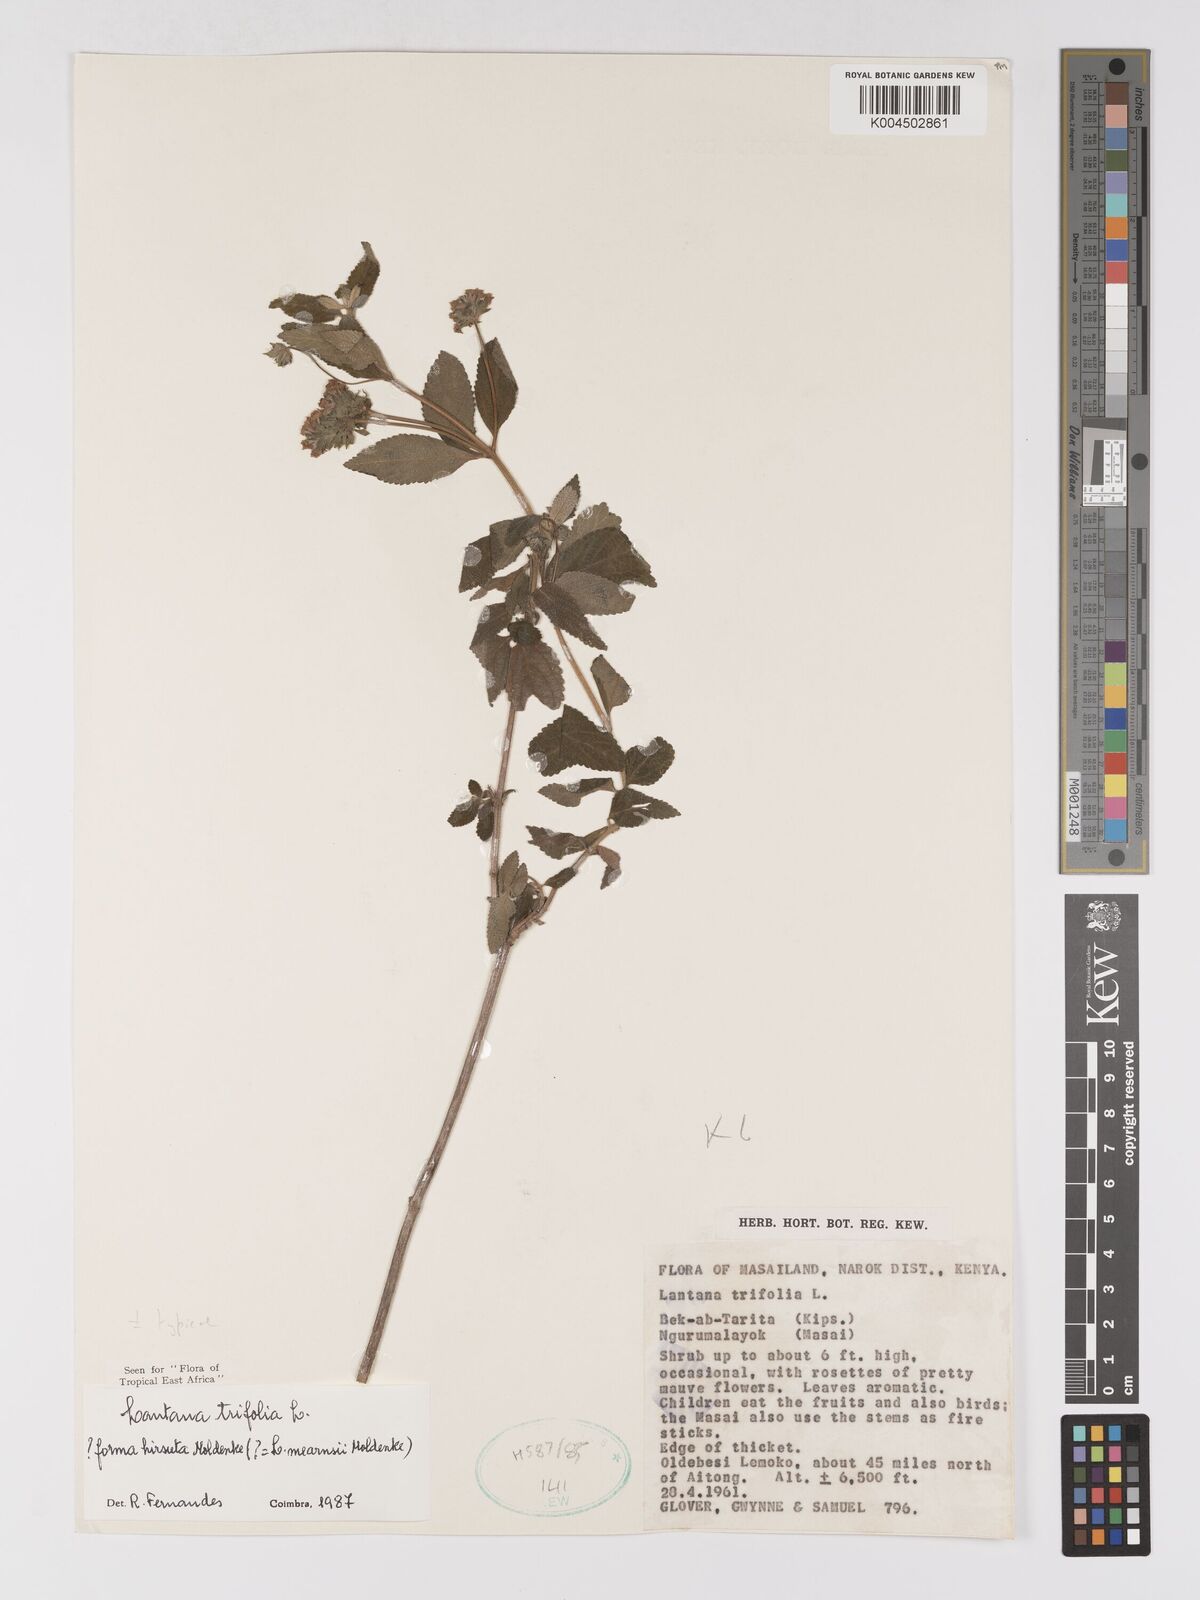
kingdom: Plantae
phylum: Tracheophyta
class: Magnoliopsida
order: Lamiales
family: Verbenaceae
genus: Lantana
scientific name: Lantana trifolia
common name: Sweet-sage
